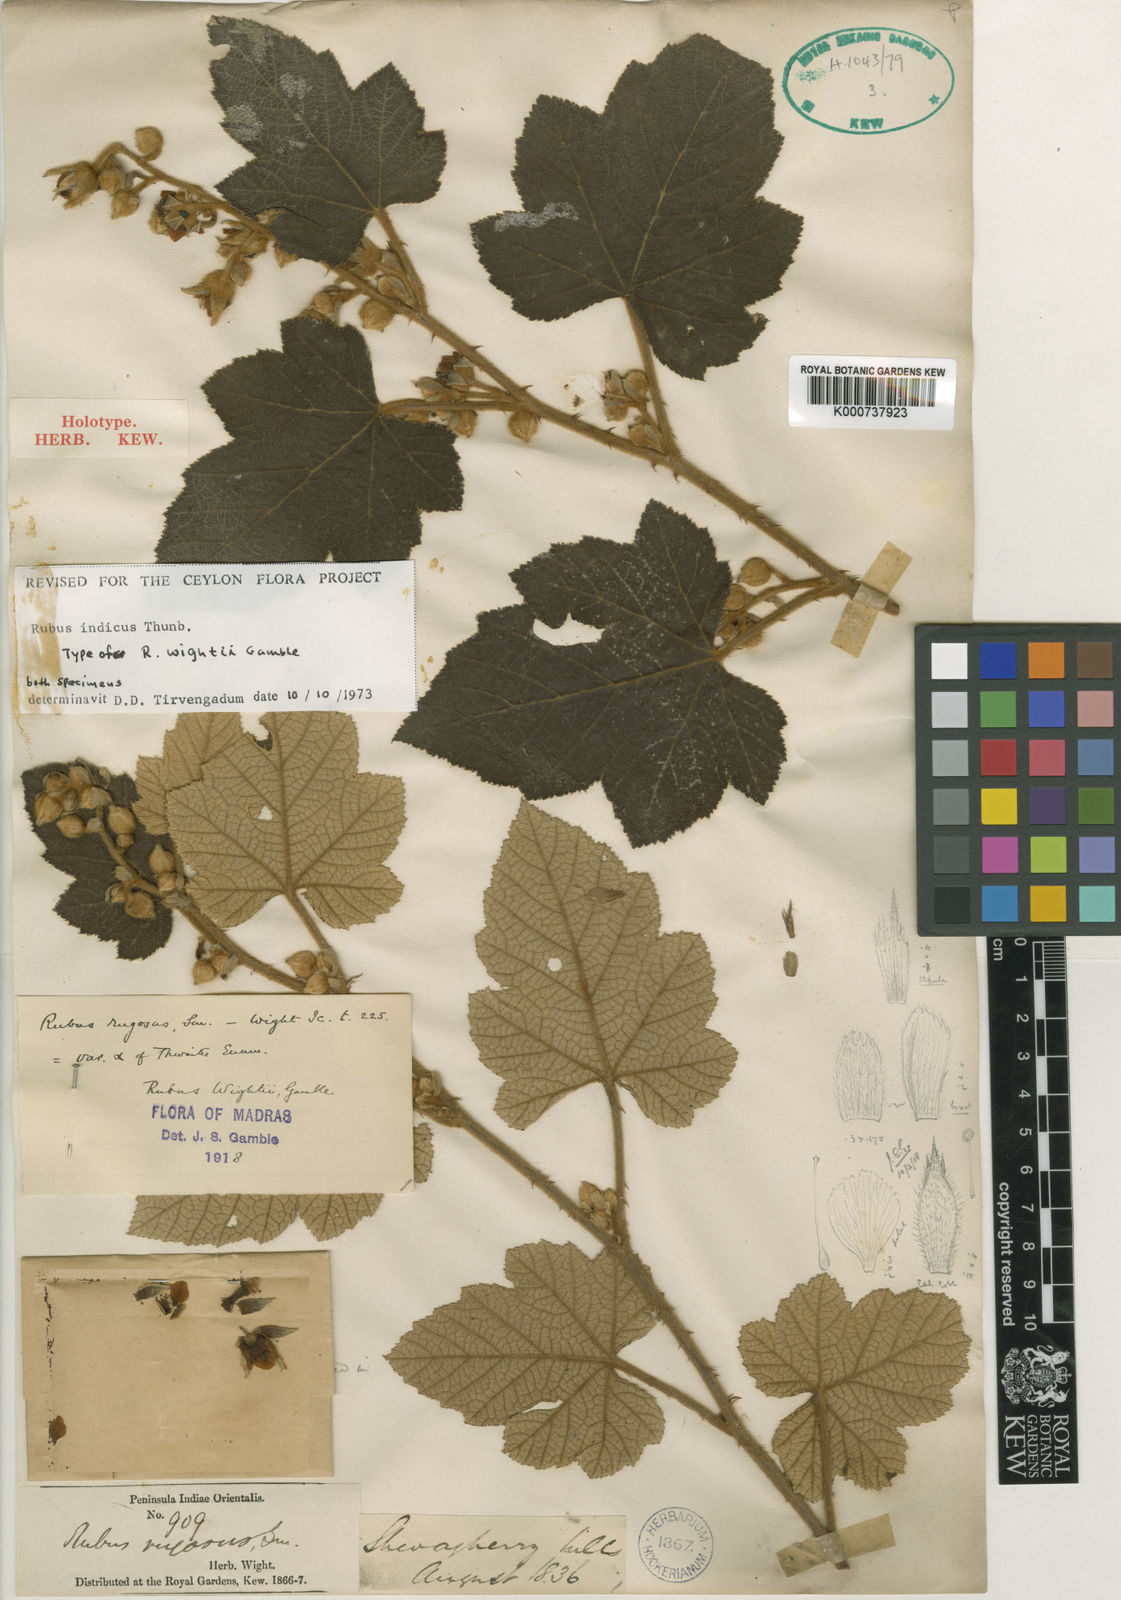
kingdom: Plantae
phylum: Tracheophyta
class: Magnoliopsida
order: Rosales
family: Rosaceae
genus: Rubus
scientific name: Rubus rugosus
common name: Himalayan blackberry
